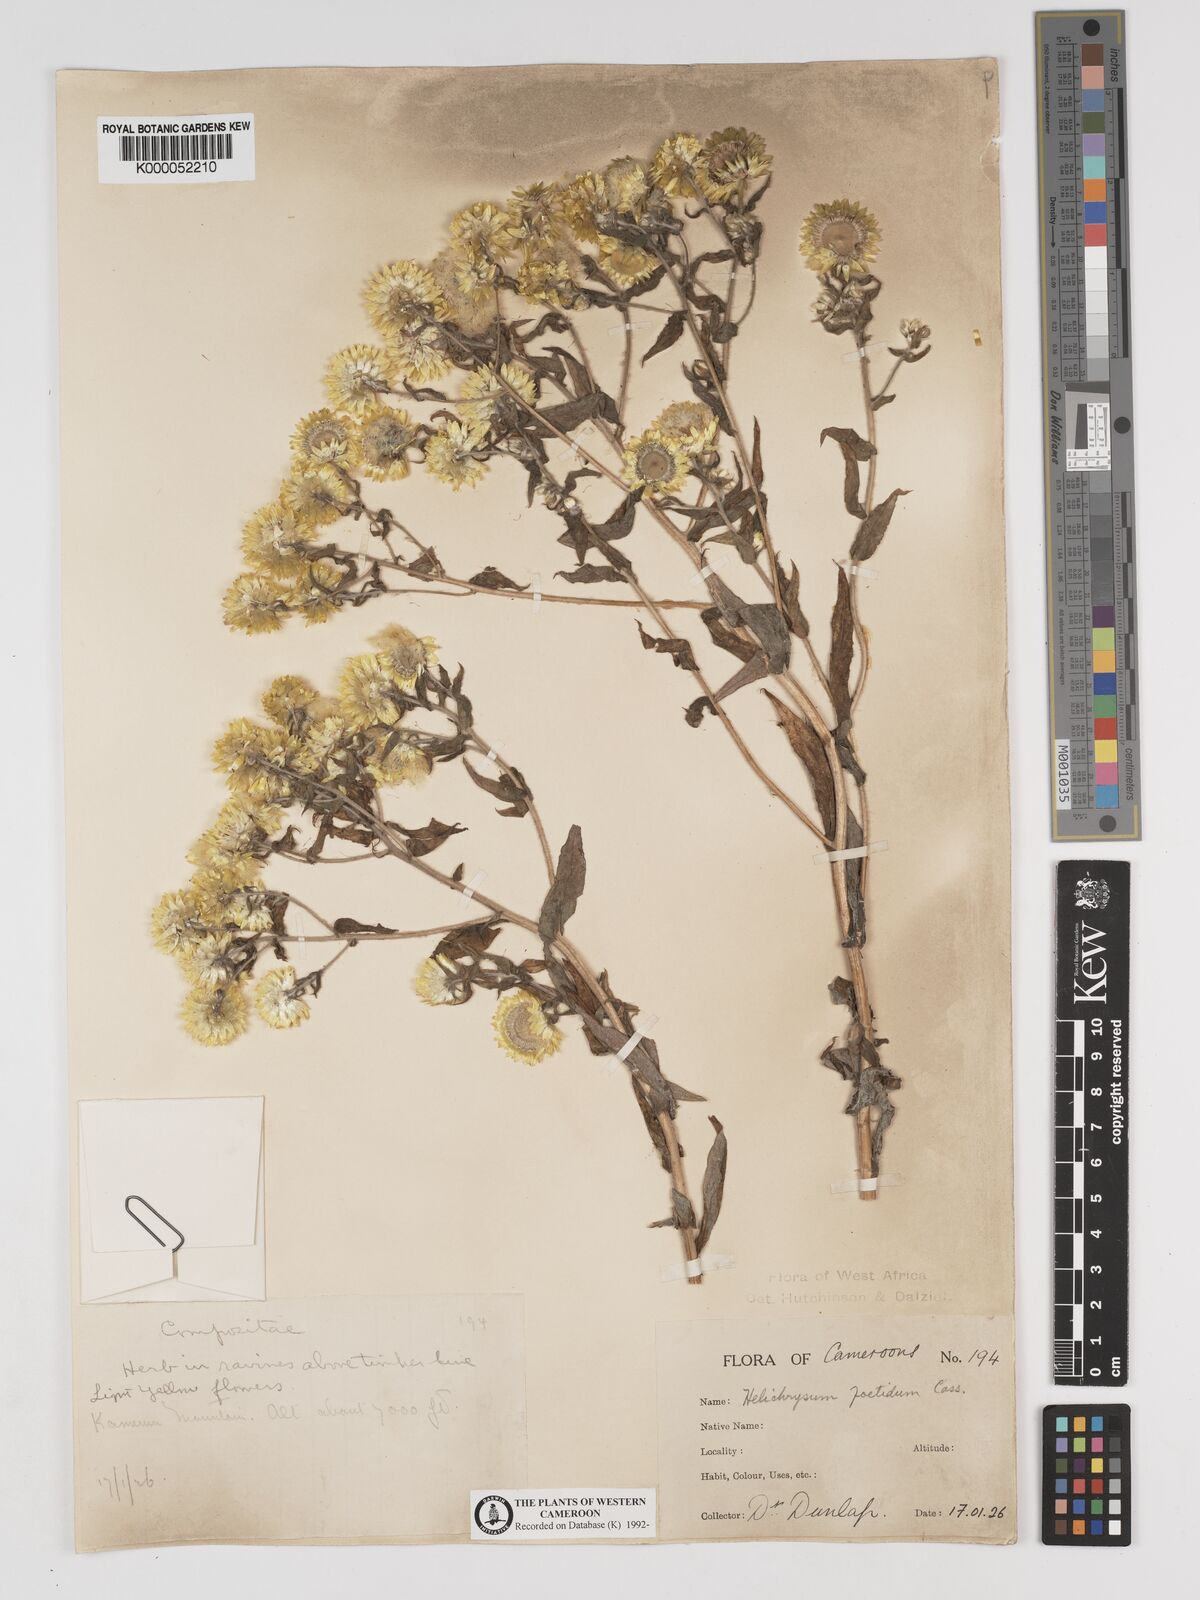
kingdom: Plantae
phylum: Tracheophyta
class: Magnoliopsida
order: Asterales
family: Asteraceae
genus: Helichrysum
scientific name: Helichrysum foetidum
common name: Stinking everlasting
